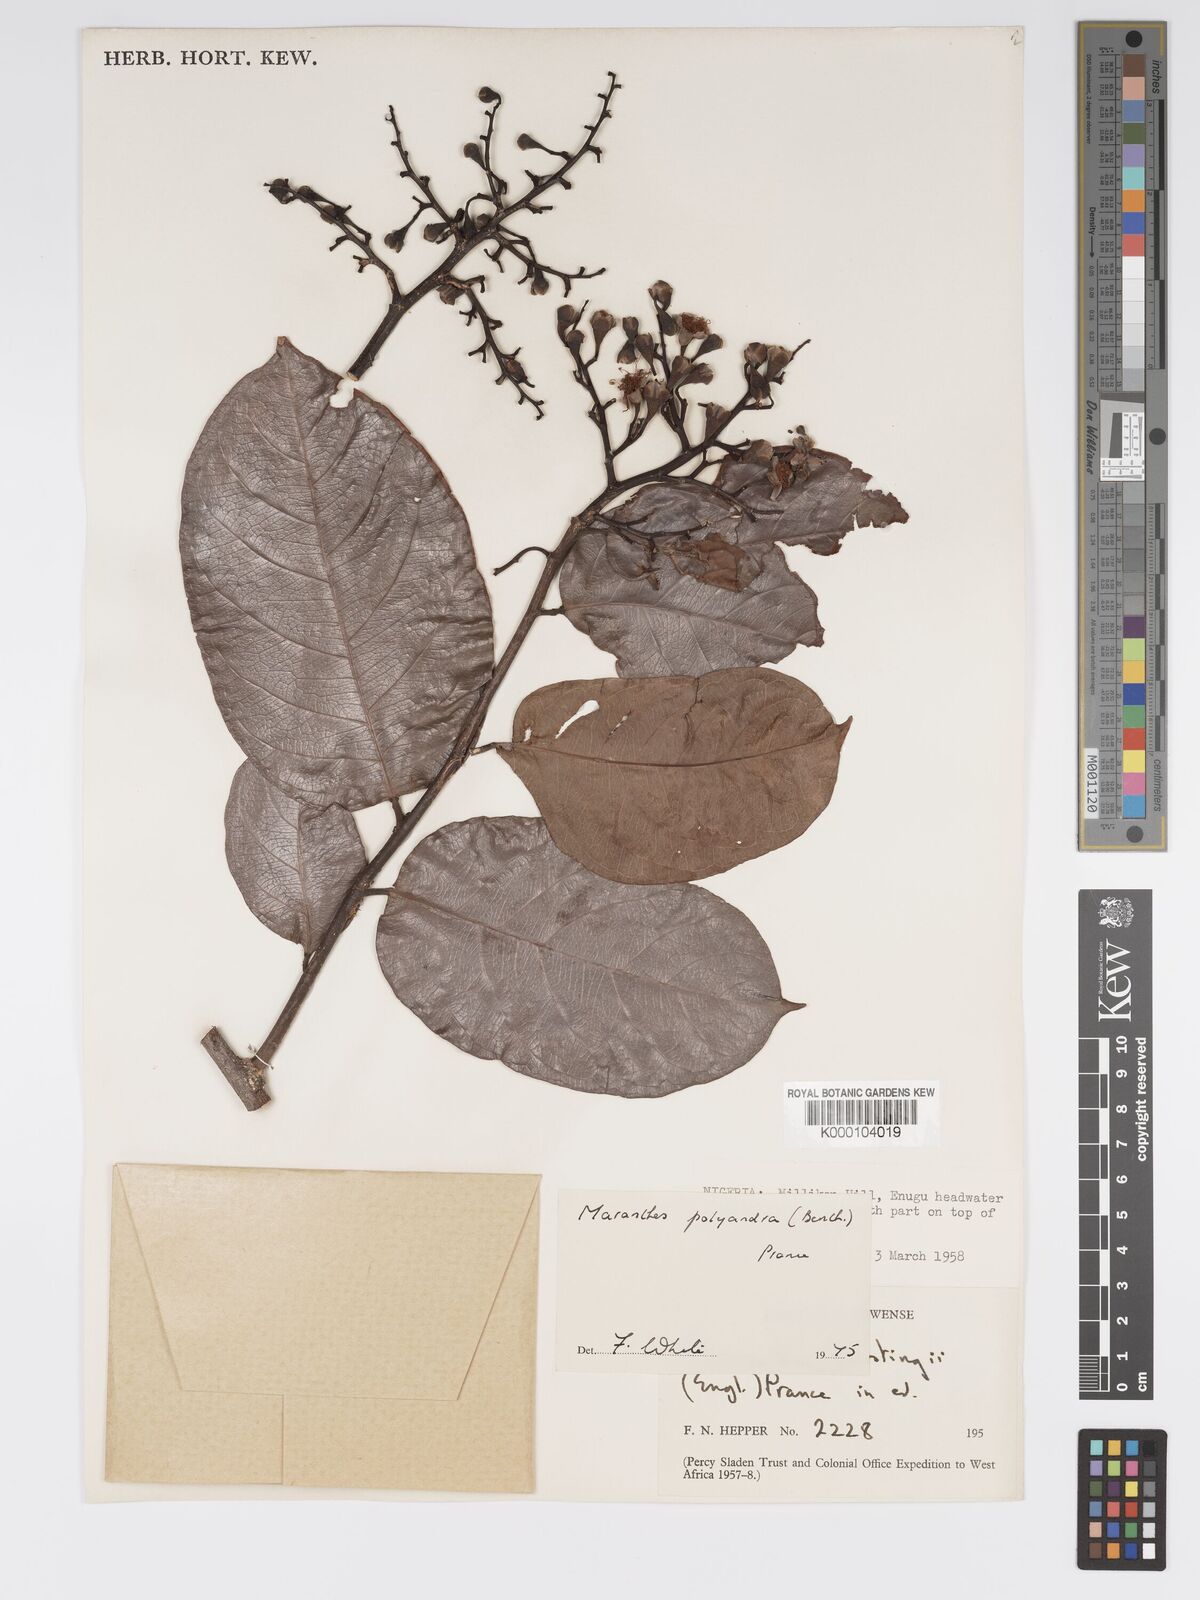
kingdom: Plantae
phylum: Tracheophyta
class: Magnoliopsida
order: Malpighiales
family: Chrysobalanaceae
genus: Maranthes
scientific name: Maranthes polyandra
